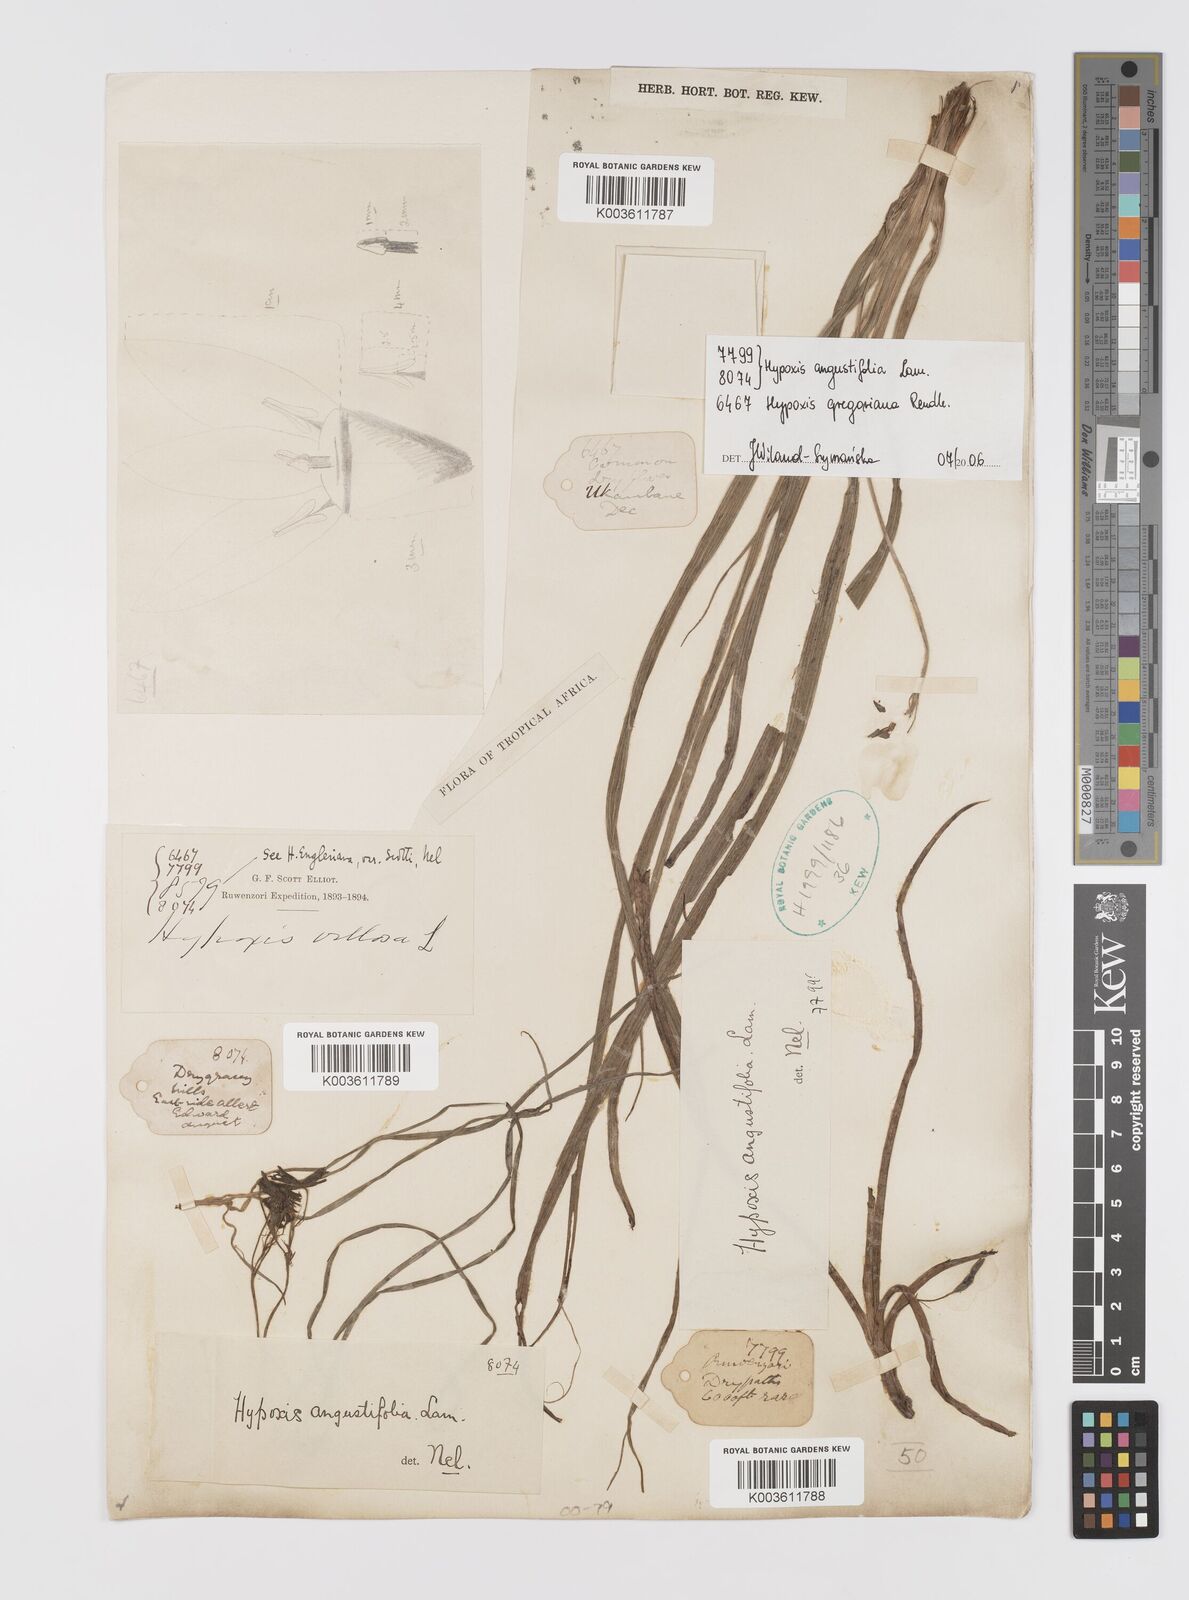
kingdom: Plantae
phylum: Tracheophyta
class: Liliopsida
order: Asparagales
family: Hypoxidaceae
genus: Hypoxis
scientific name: Hypoxis angustifolia
